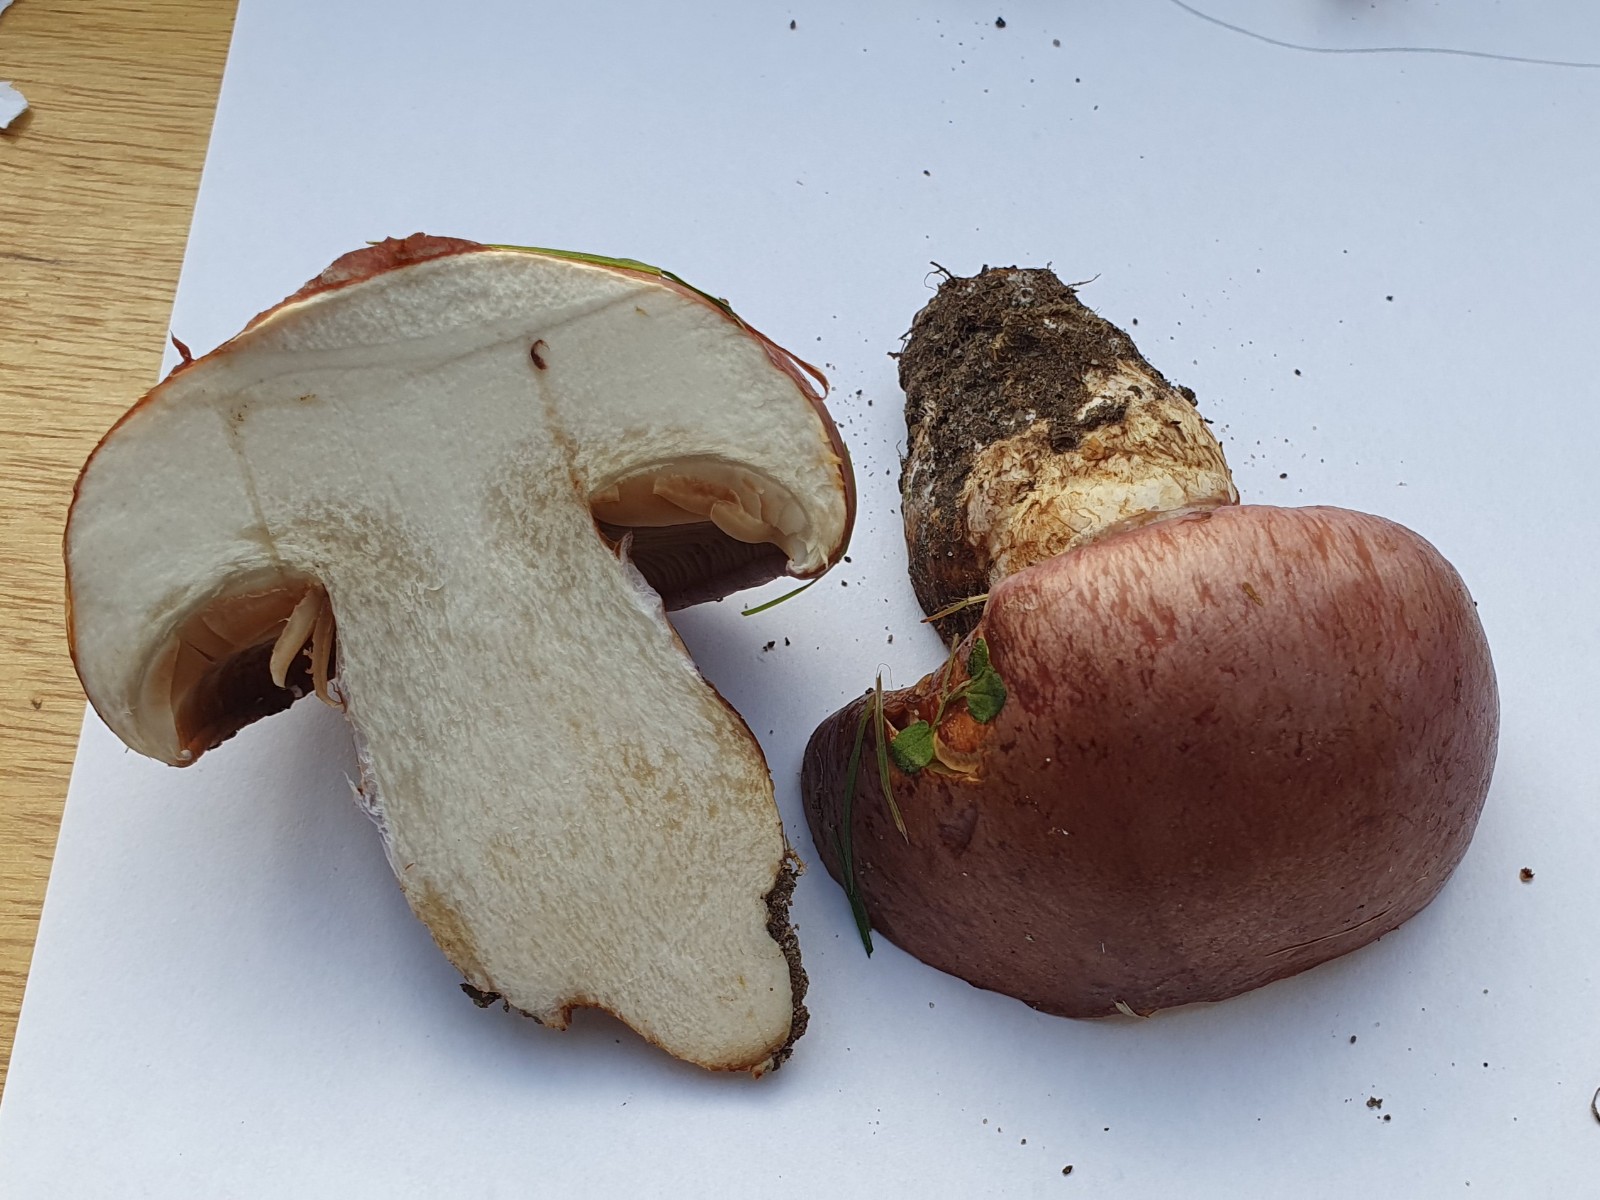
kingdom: Fungi
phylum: Basidiomycota
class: Agaricomycetes
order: Agaricales
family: Cortinariaceae
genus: Phlegmacium
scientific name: Phlegmacium balteatocumatile
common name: violettrådet slørhat
